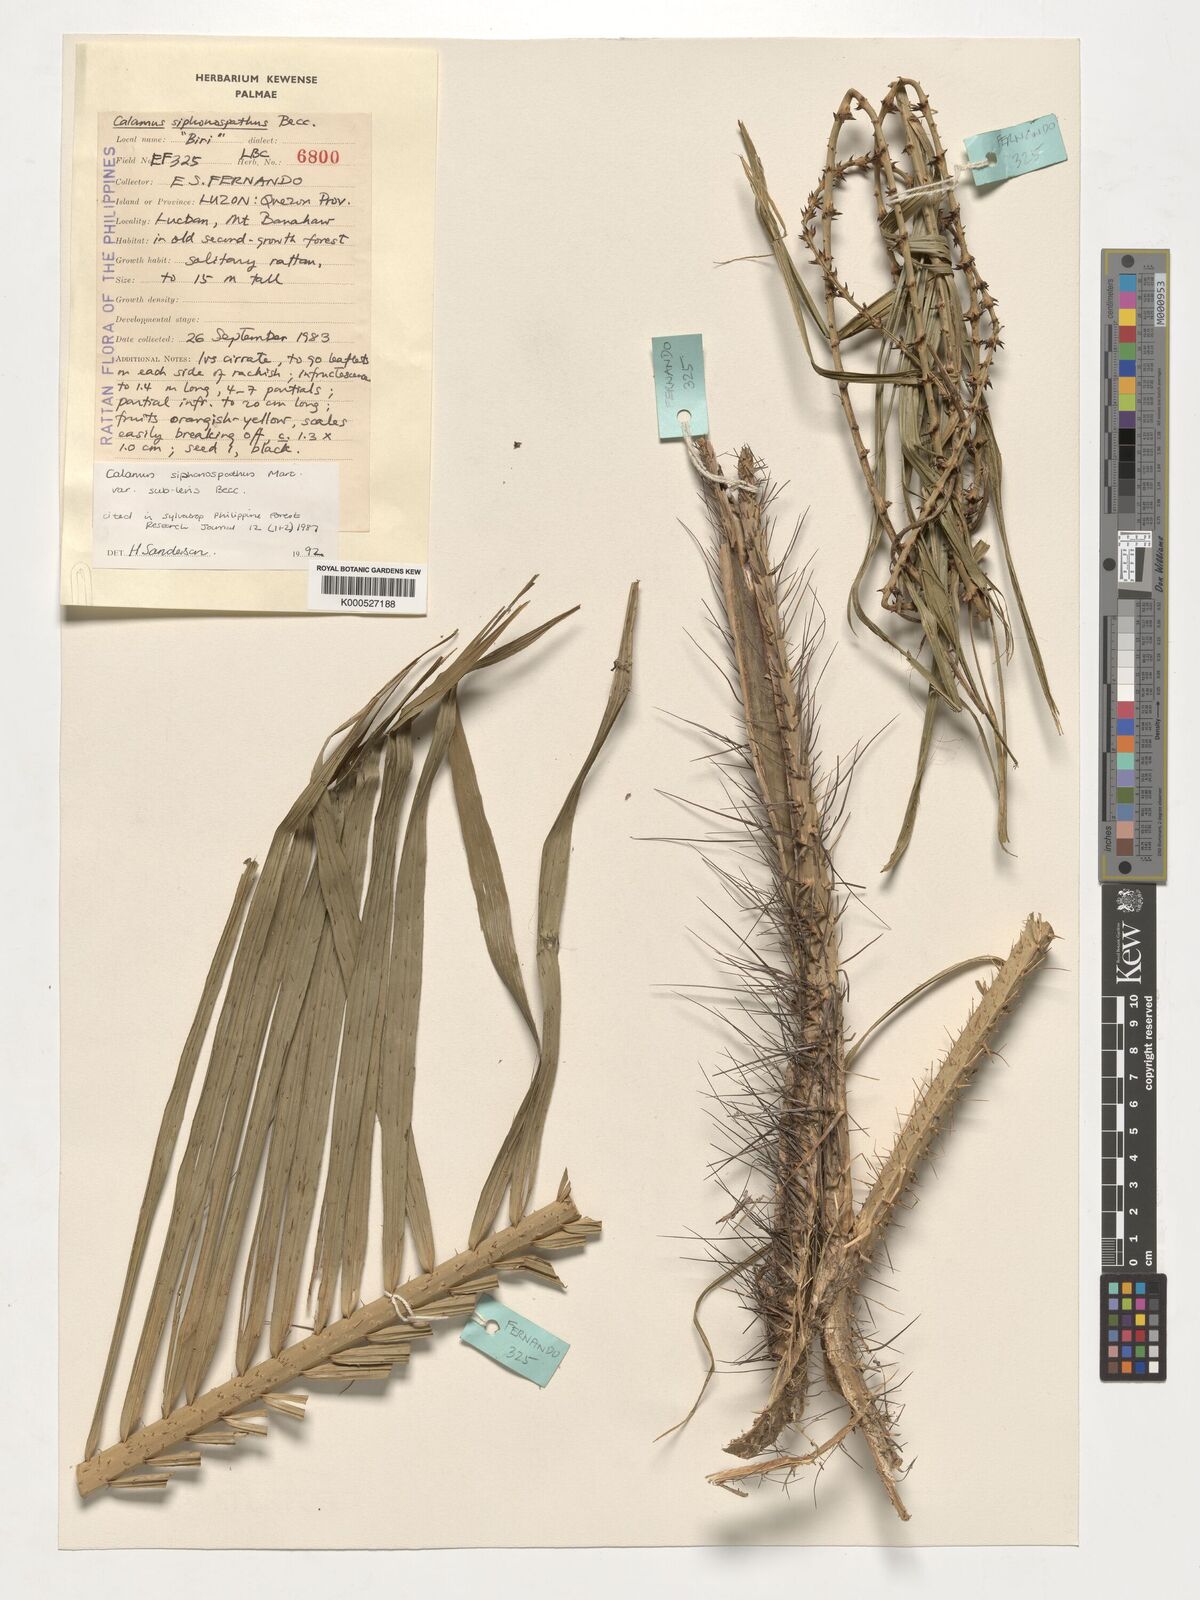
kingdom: Plantae
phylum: Tracheophyta
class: Liliopsida
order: Arecales
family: Arecaceae
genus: Calamus
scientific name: Calamus siphonospathus
